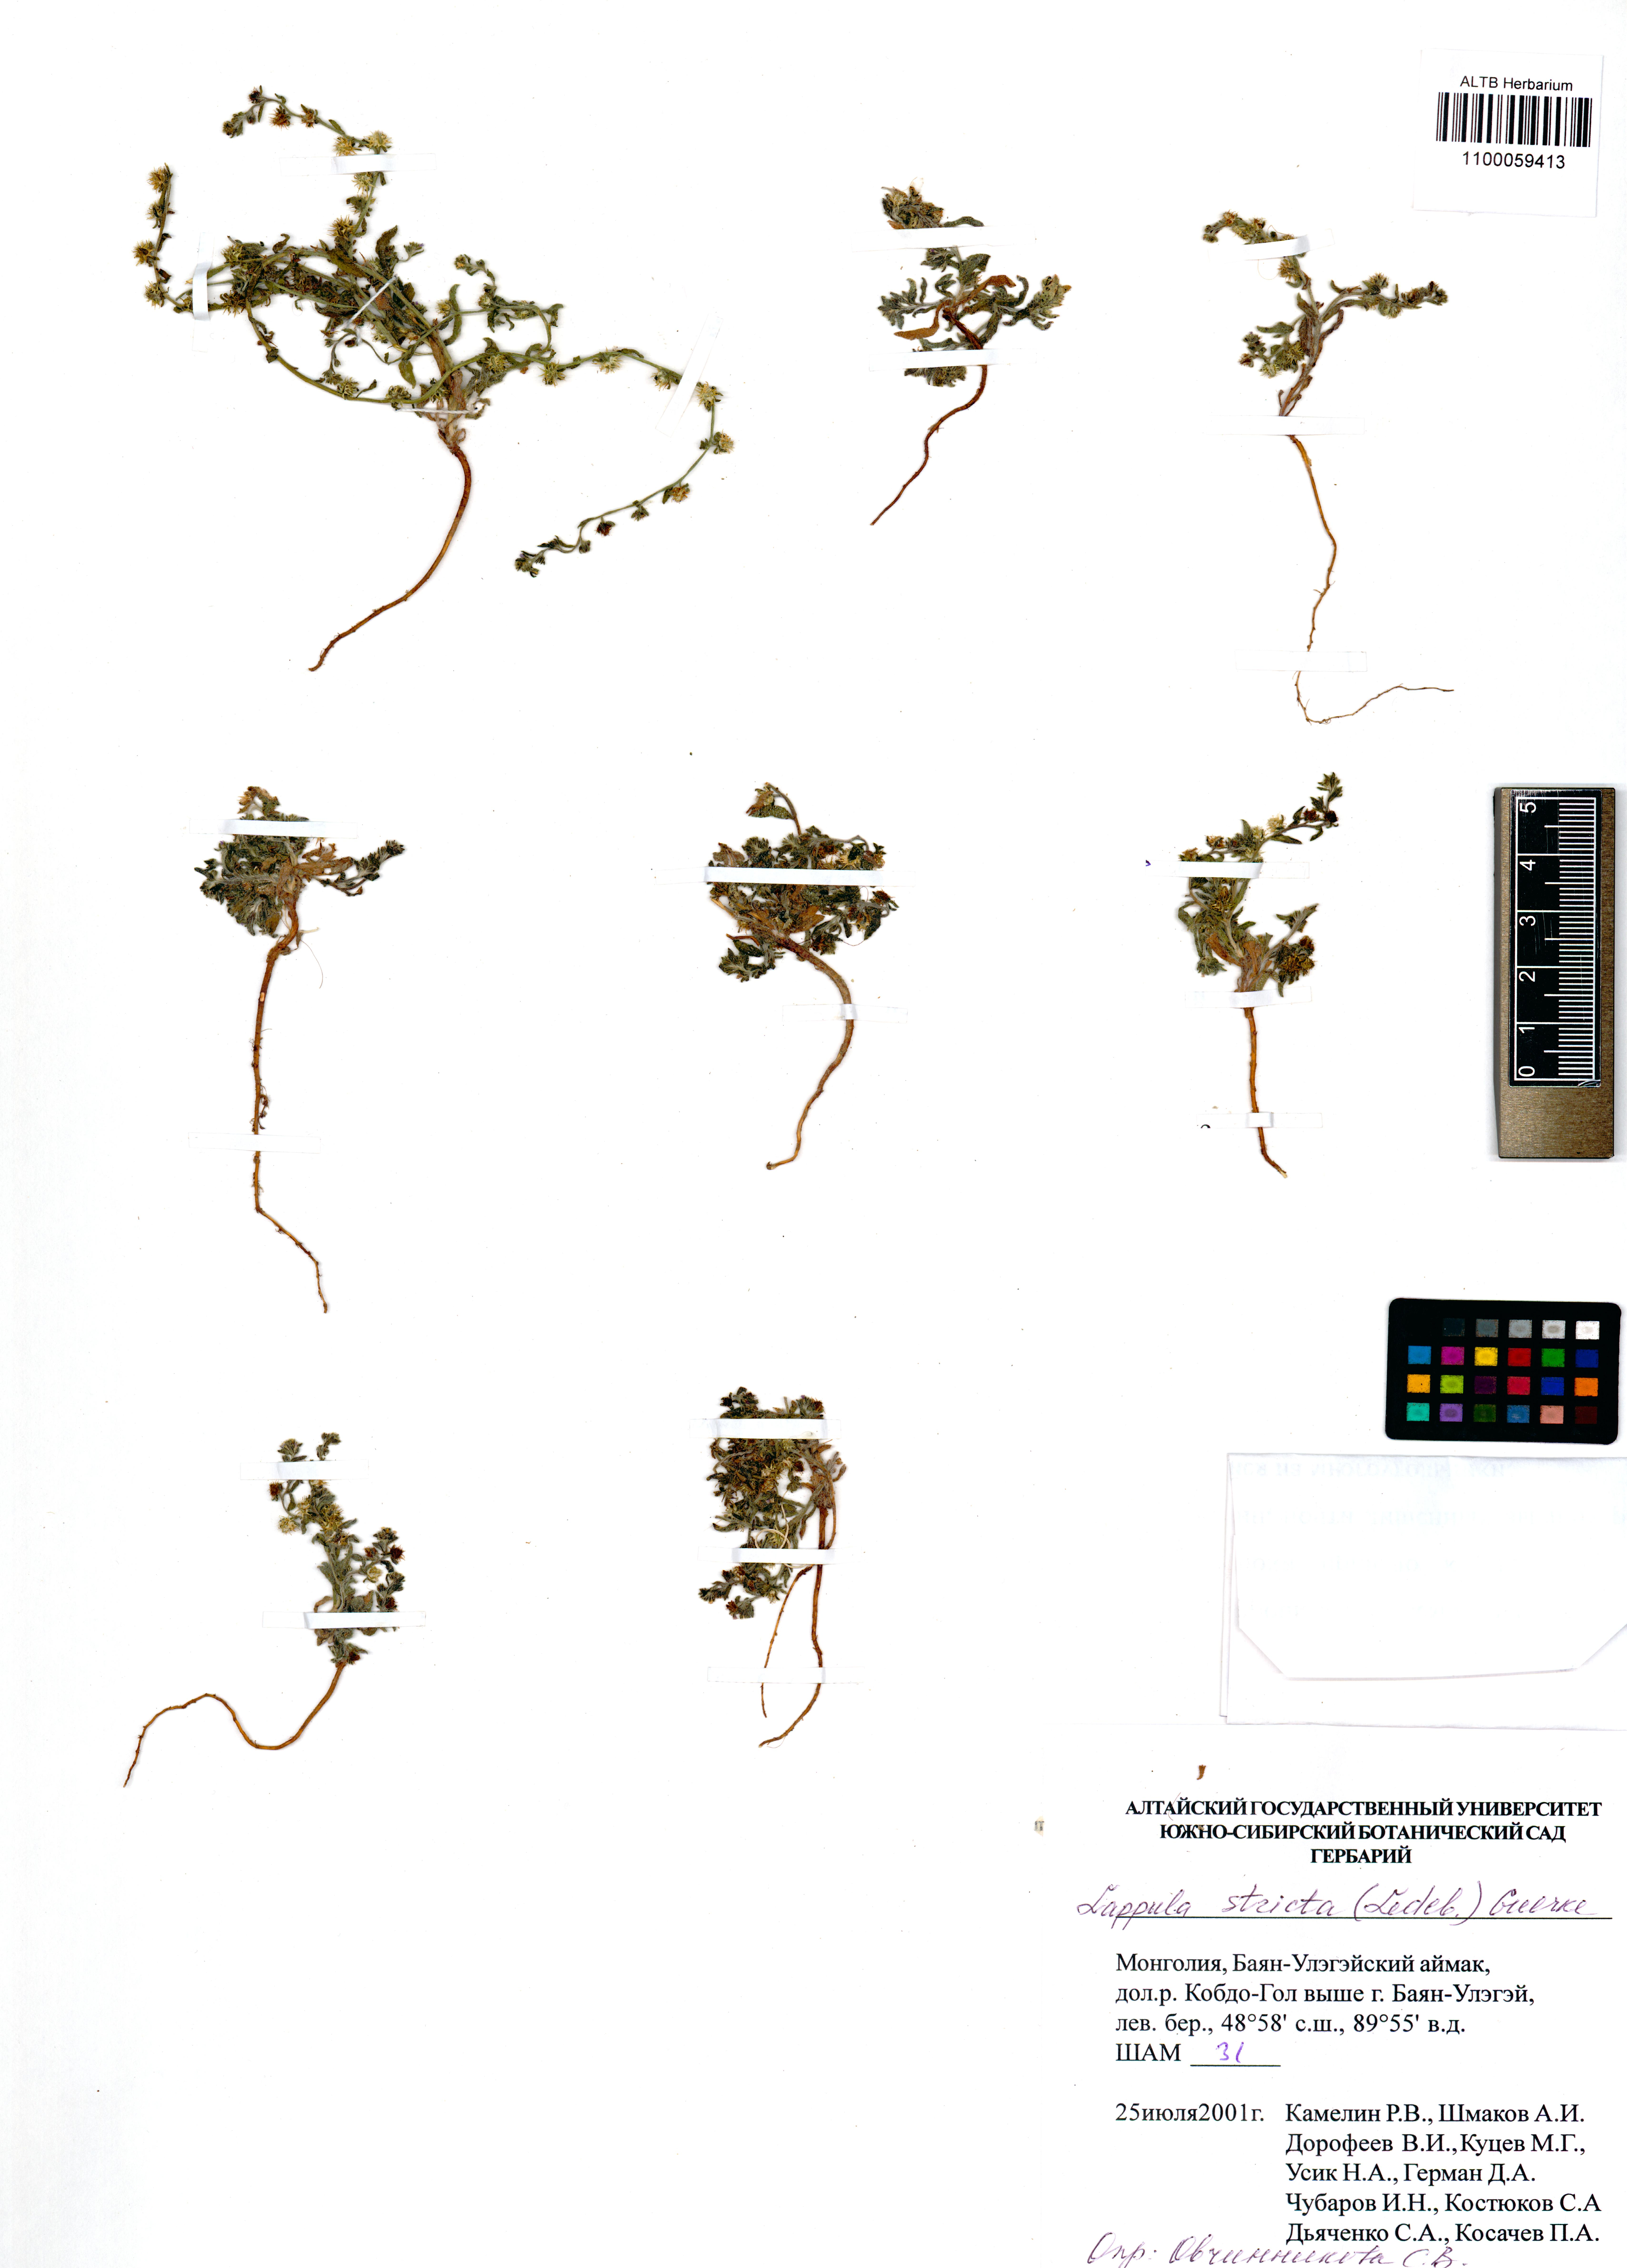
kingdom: Plantae
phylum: Tracheophyta
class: Magnoliopsida
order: Boraginales
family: Boraginaceae
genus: Lappula
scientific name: Lappula stricta
